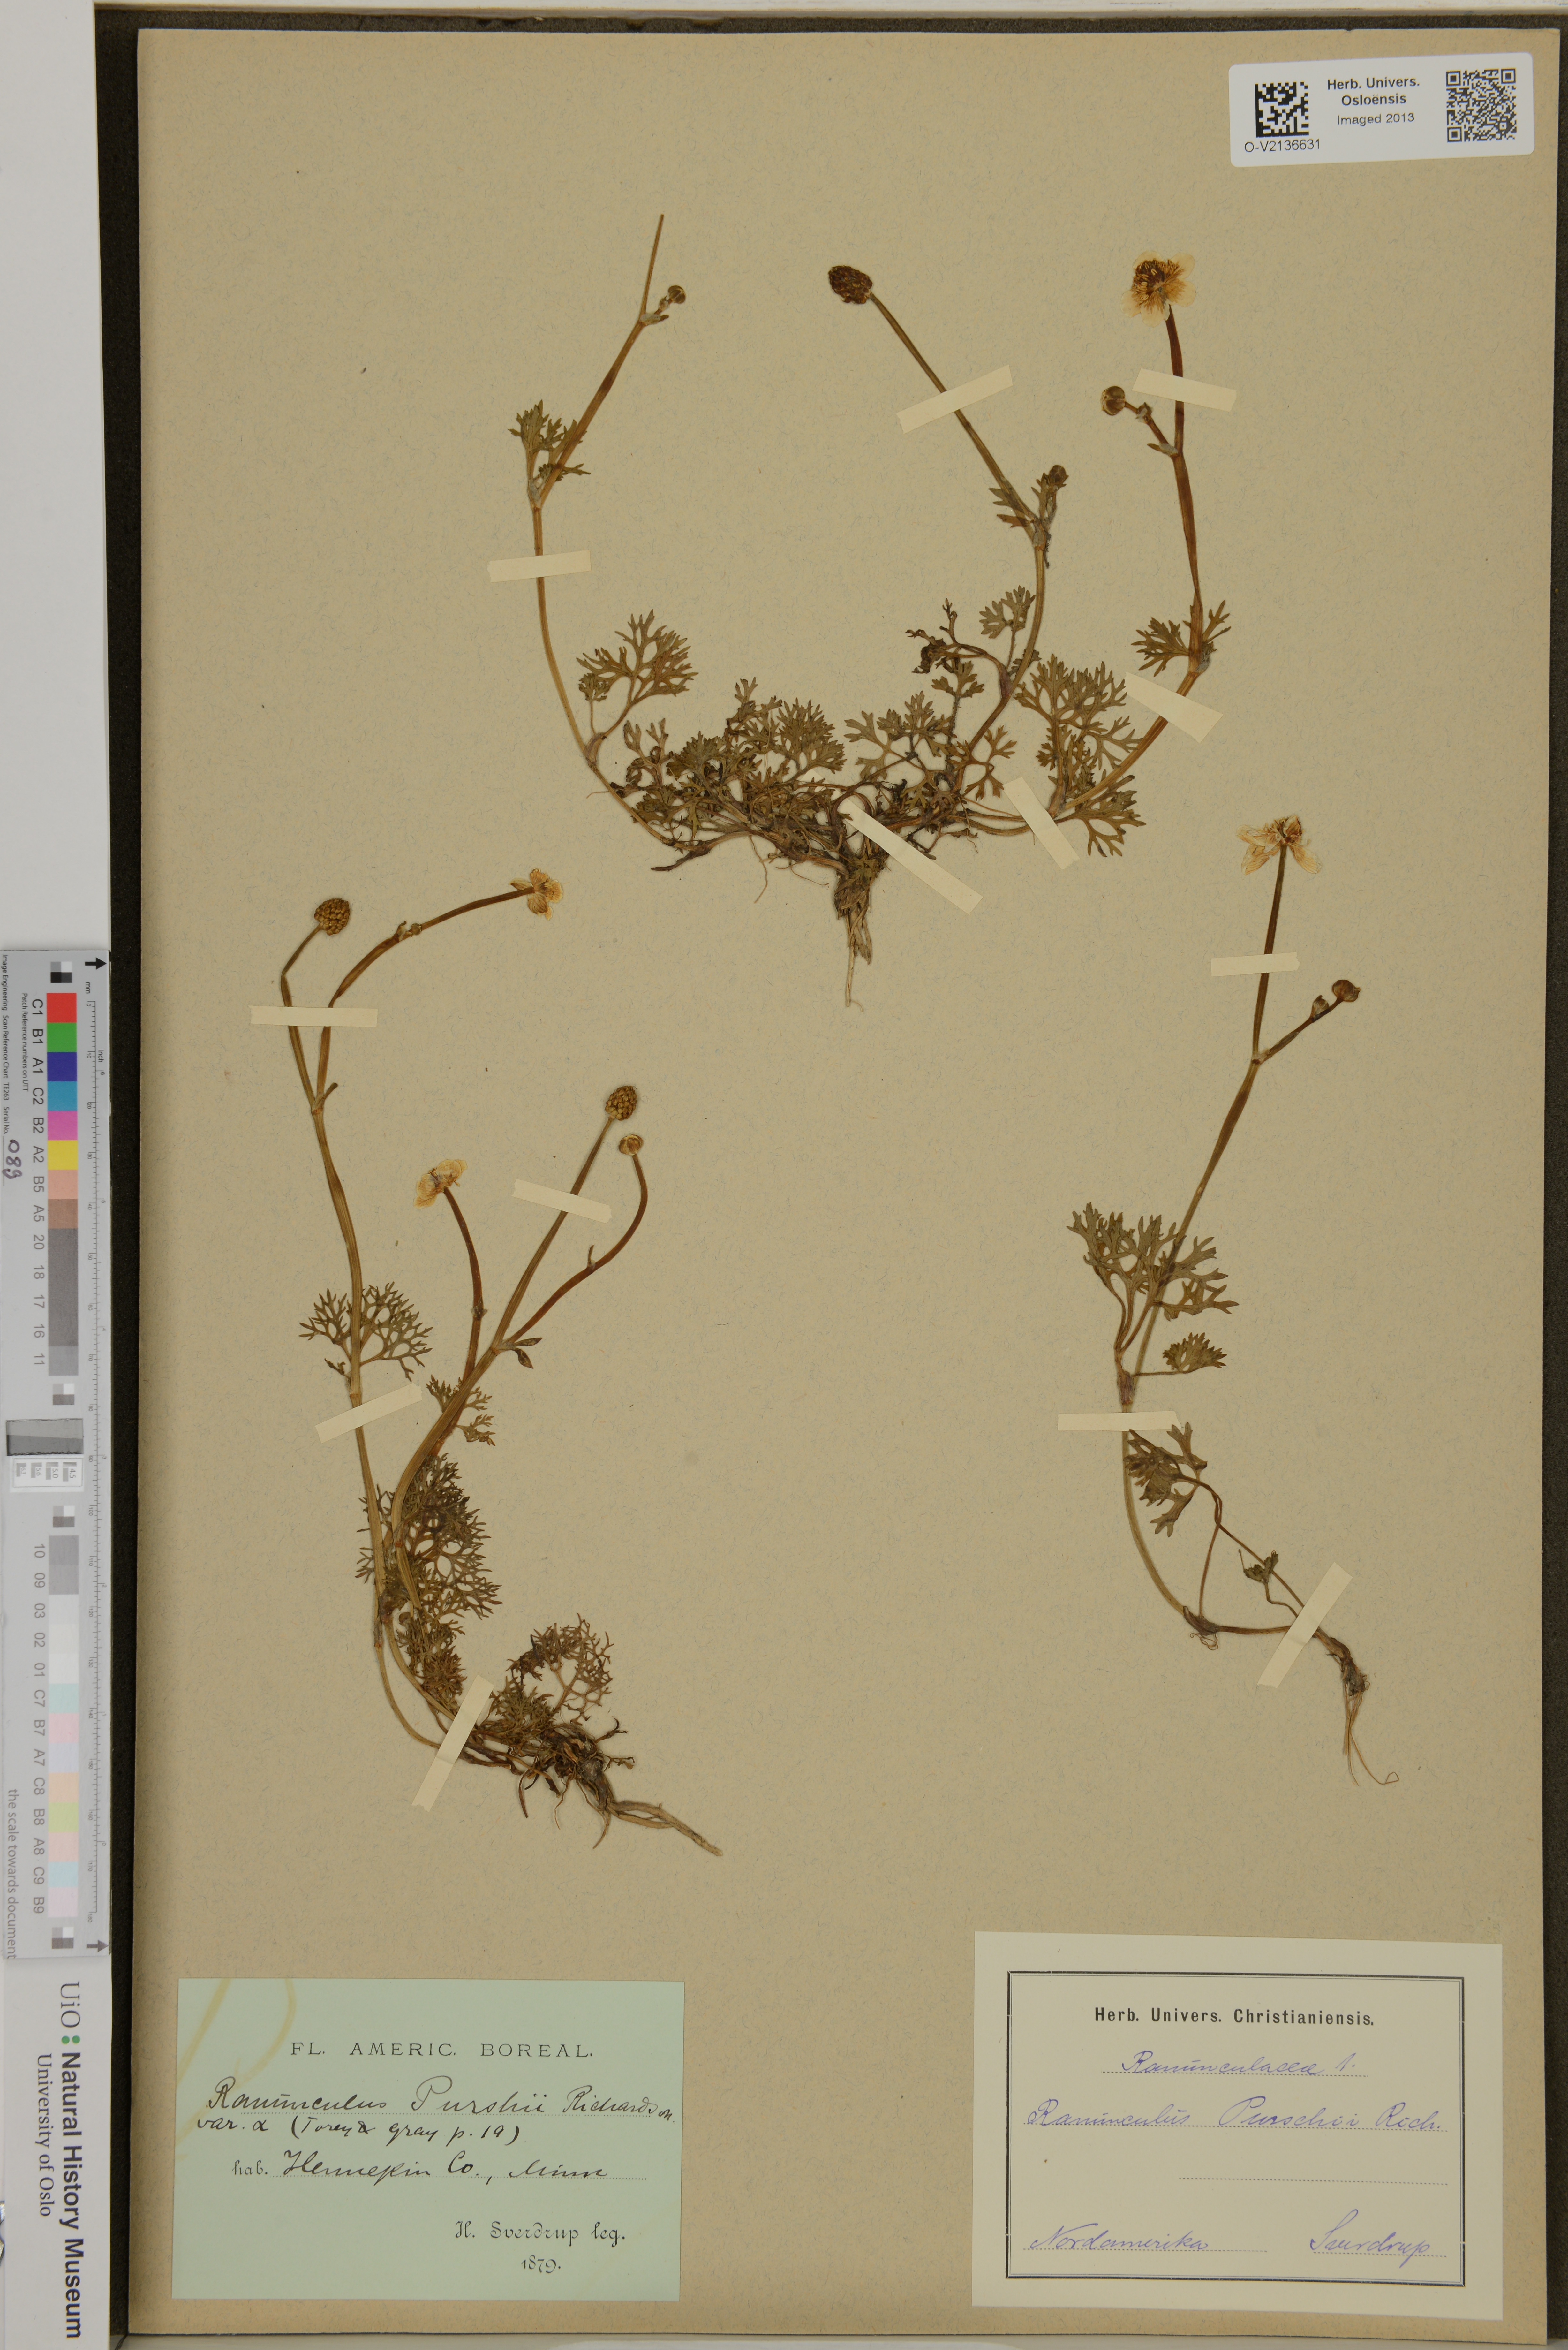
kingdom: Plantae
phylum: Tracheophyta
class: Magnoliopsida
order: Ranunculales
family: Ranunculaceae
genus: Ranunculus
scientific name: Ranunculus gmelinii
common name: Gmelin's buttercup
